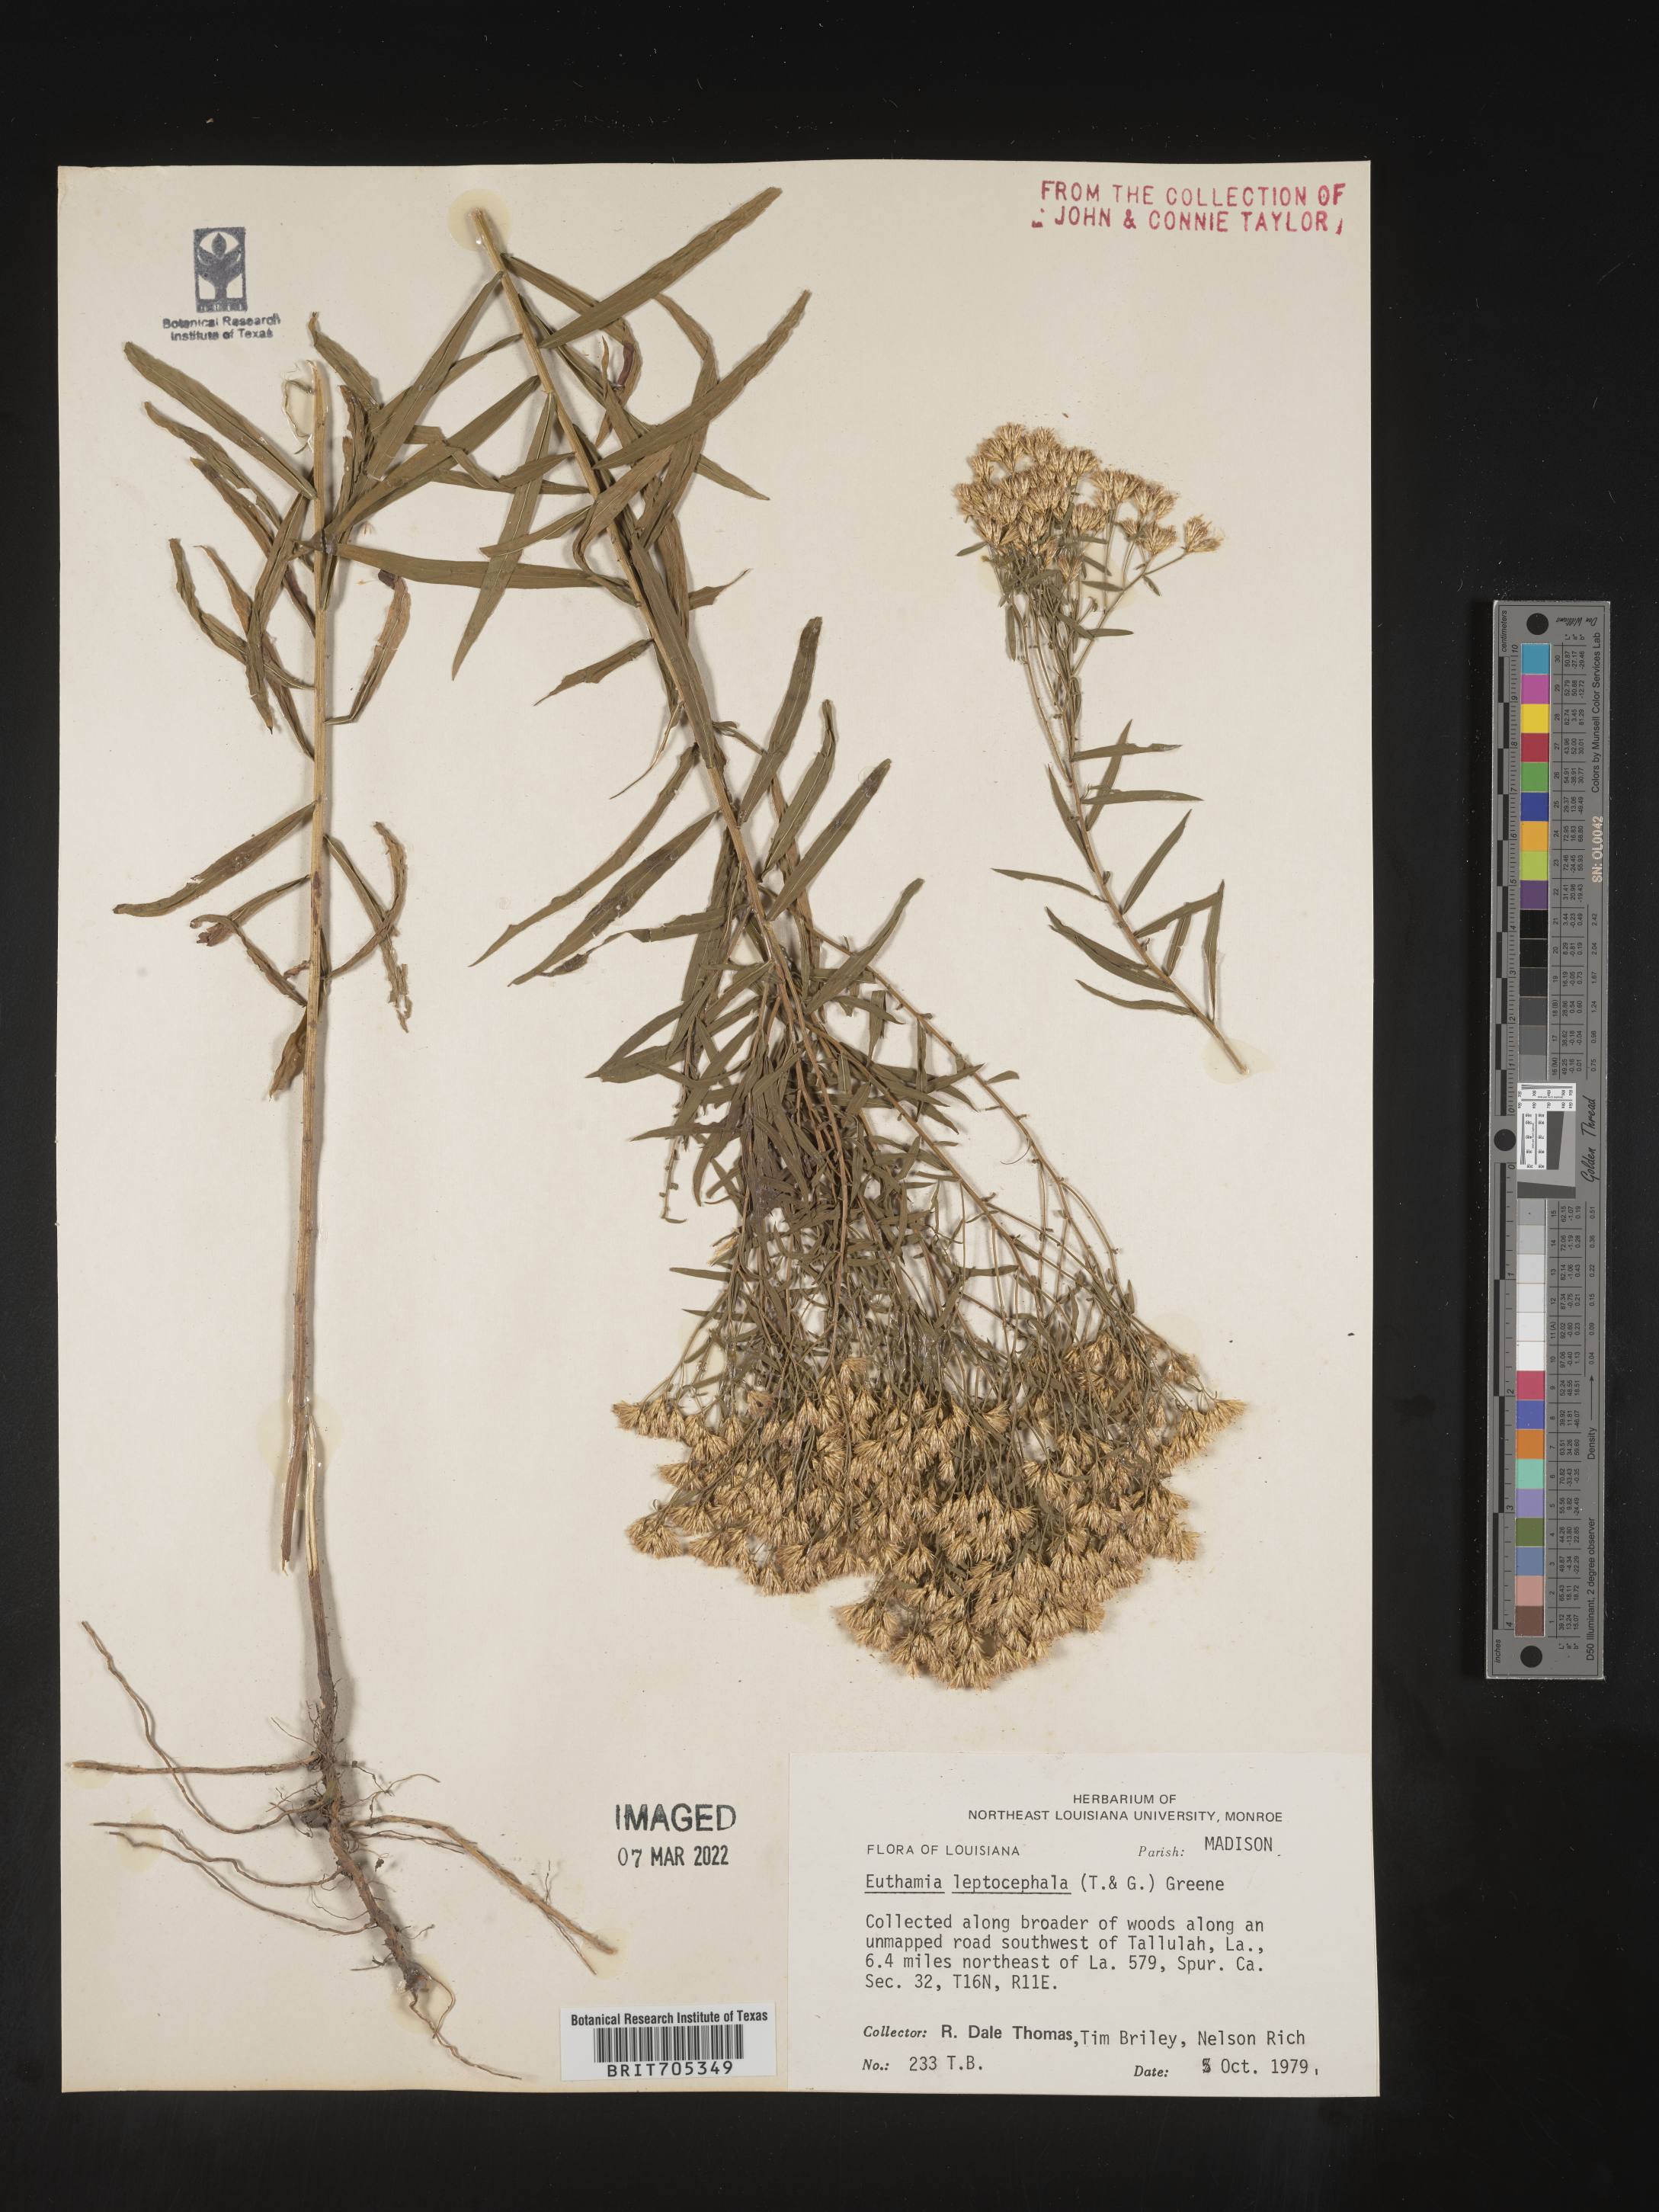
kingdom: Plantae
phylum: Tracheophyta
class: Magnoliopsida
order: Asterales
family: Asteraceae
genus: Euthamia
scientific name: Euthamia leptocephala
